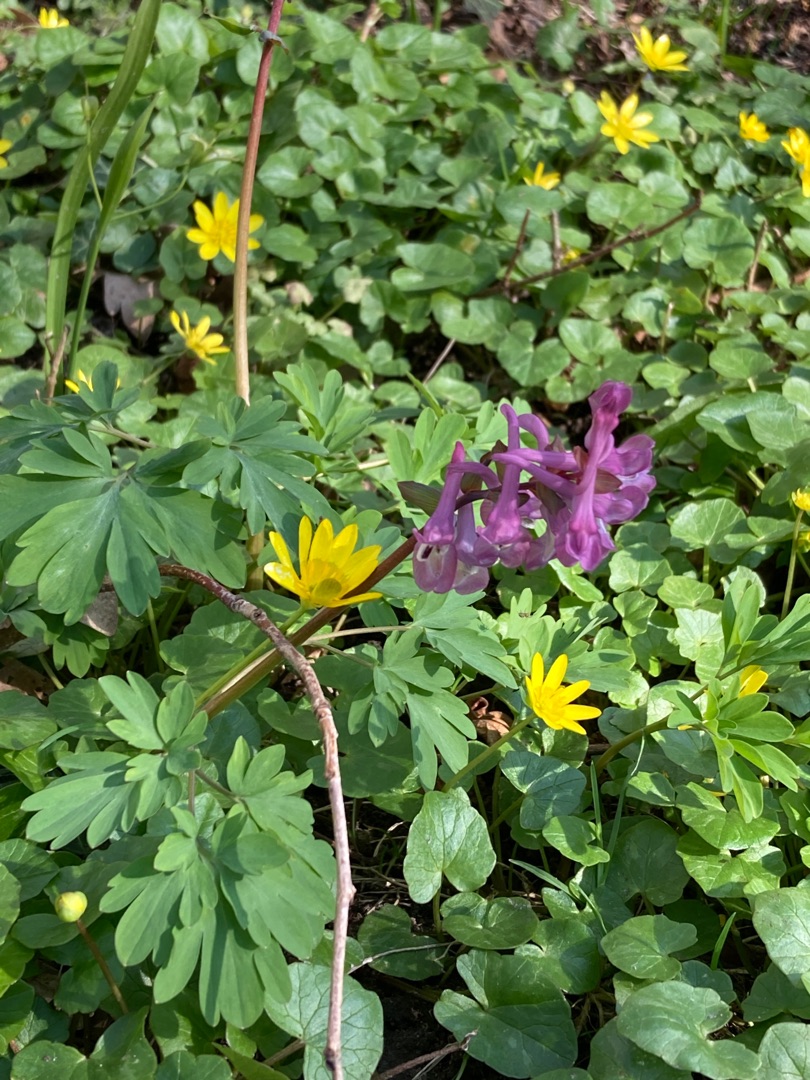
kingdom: Plantae
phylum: Tracheophyta
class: Magnoliopsida
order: Ranunculales
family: Papaveraceae
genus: Corydalis
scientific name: Corydalis cava
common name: Hulrodet lærkespore
